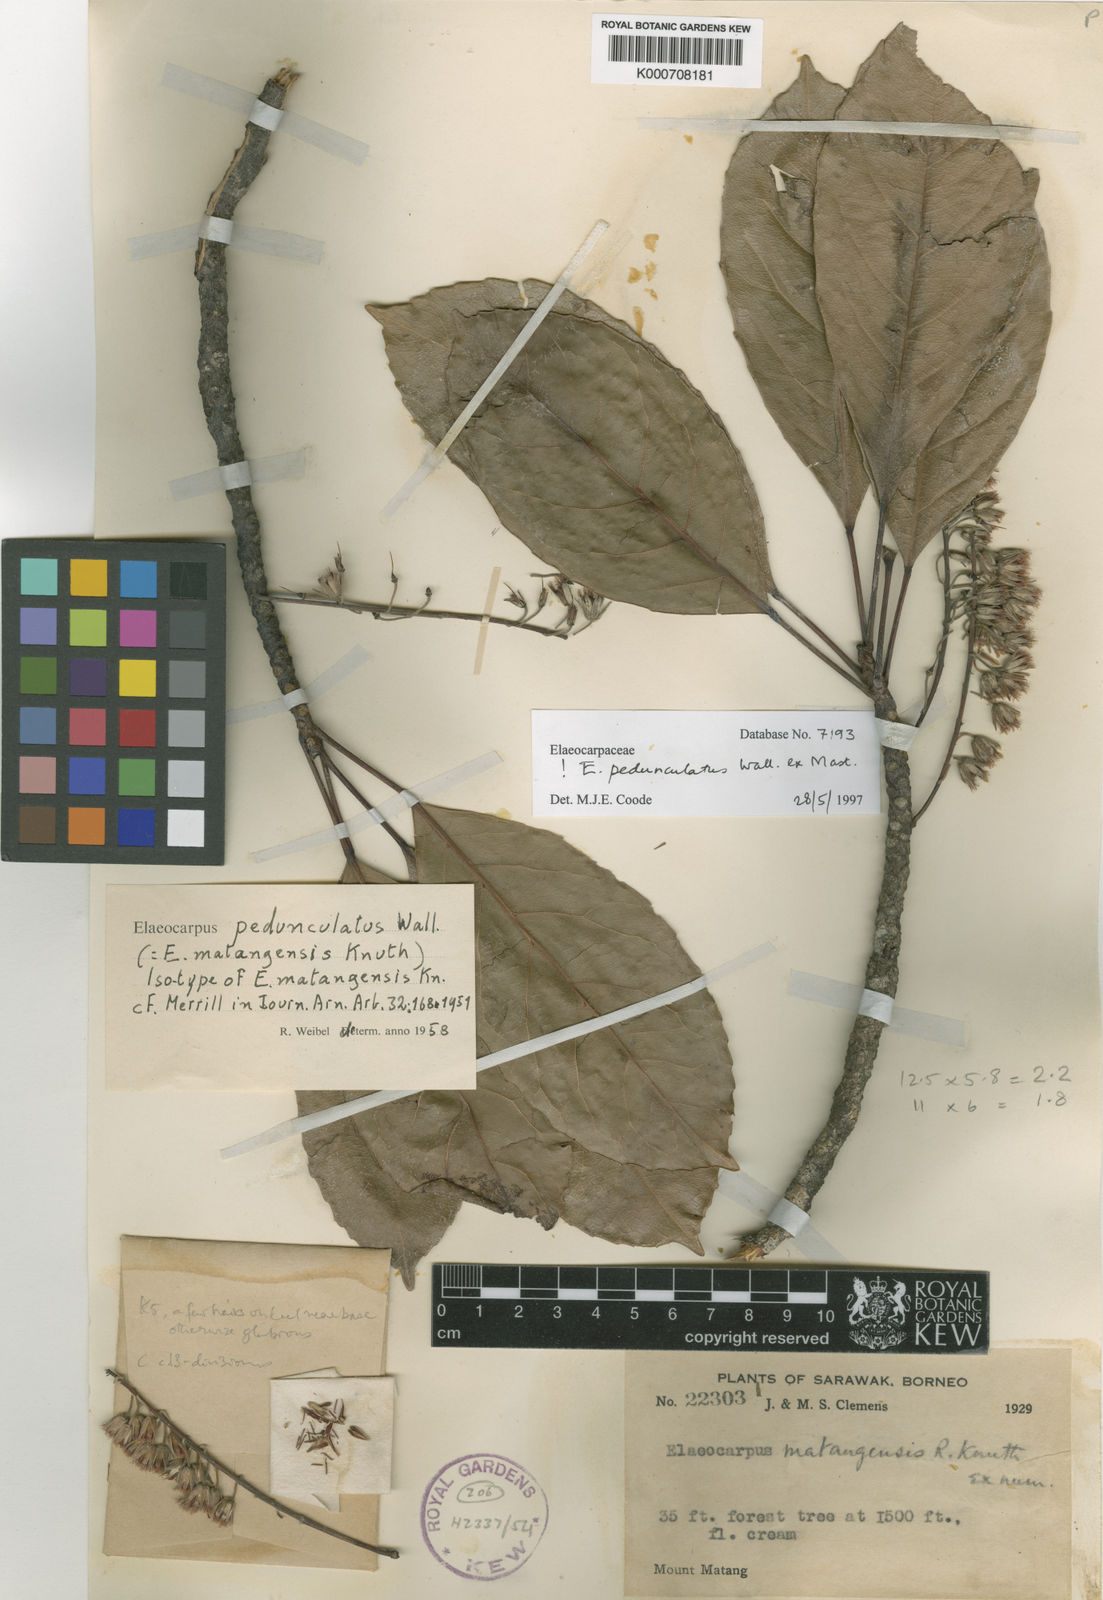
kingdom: Plantae
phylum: Tracheophyta
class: Magnoliopsida
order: Oxalidales
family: Elaeocarpaceae
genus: Elaeocarpus
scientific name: Elaeocarpus pedunculatus
